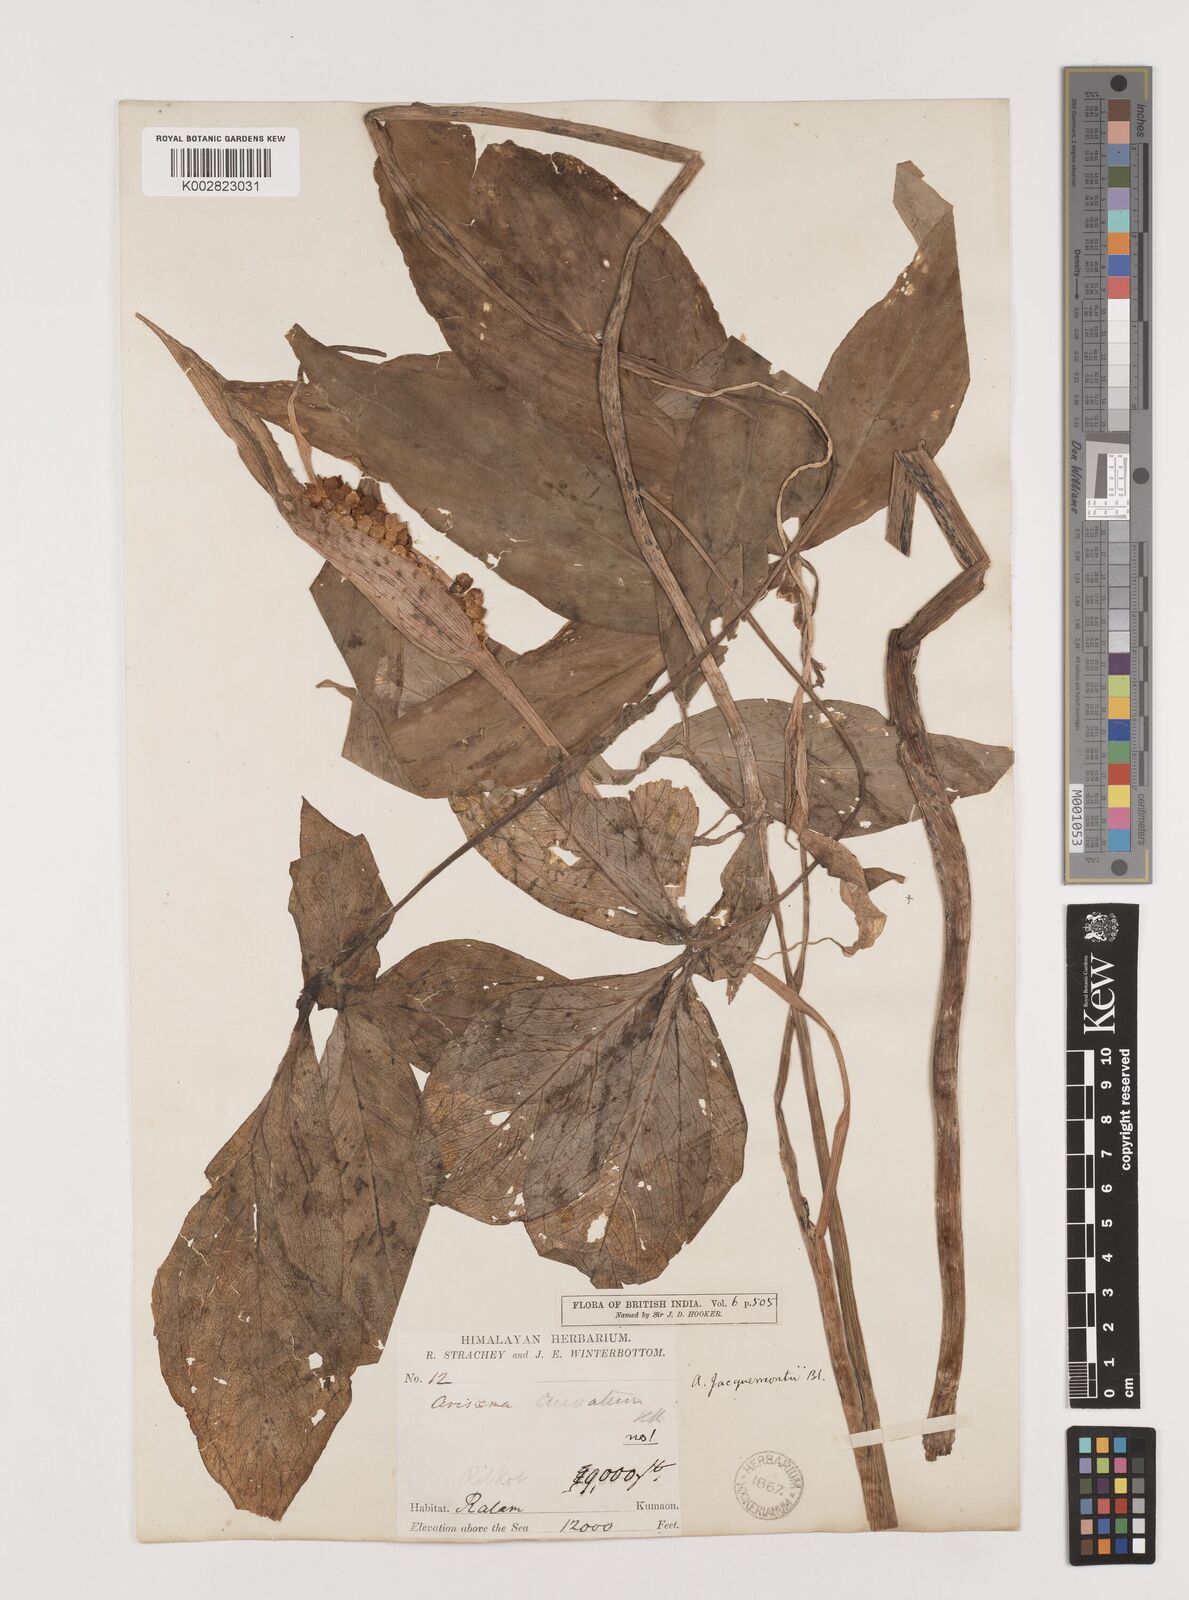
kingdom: Plantae
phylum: Tracheophyta
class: Liliopsida
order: Alismatales
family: Araceae
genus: Arisaema
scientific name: Arisaema jacquemontii
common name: Jacquemont's cobra-lily
